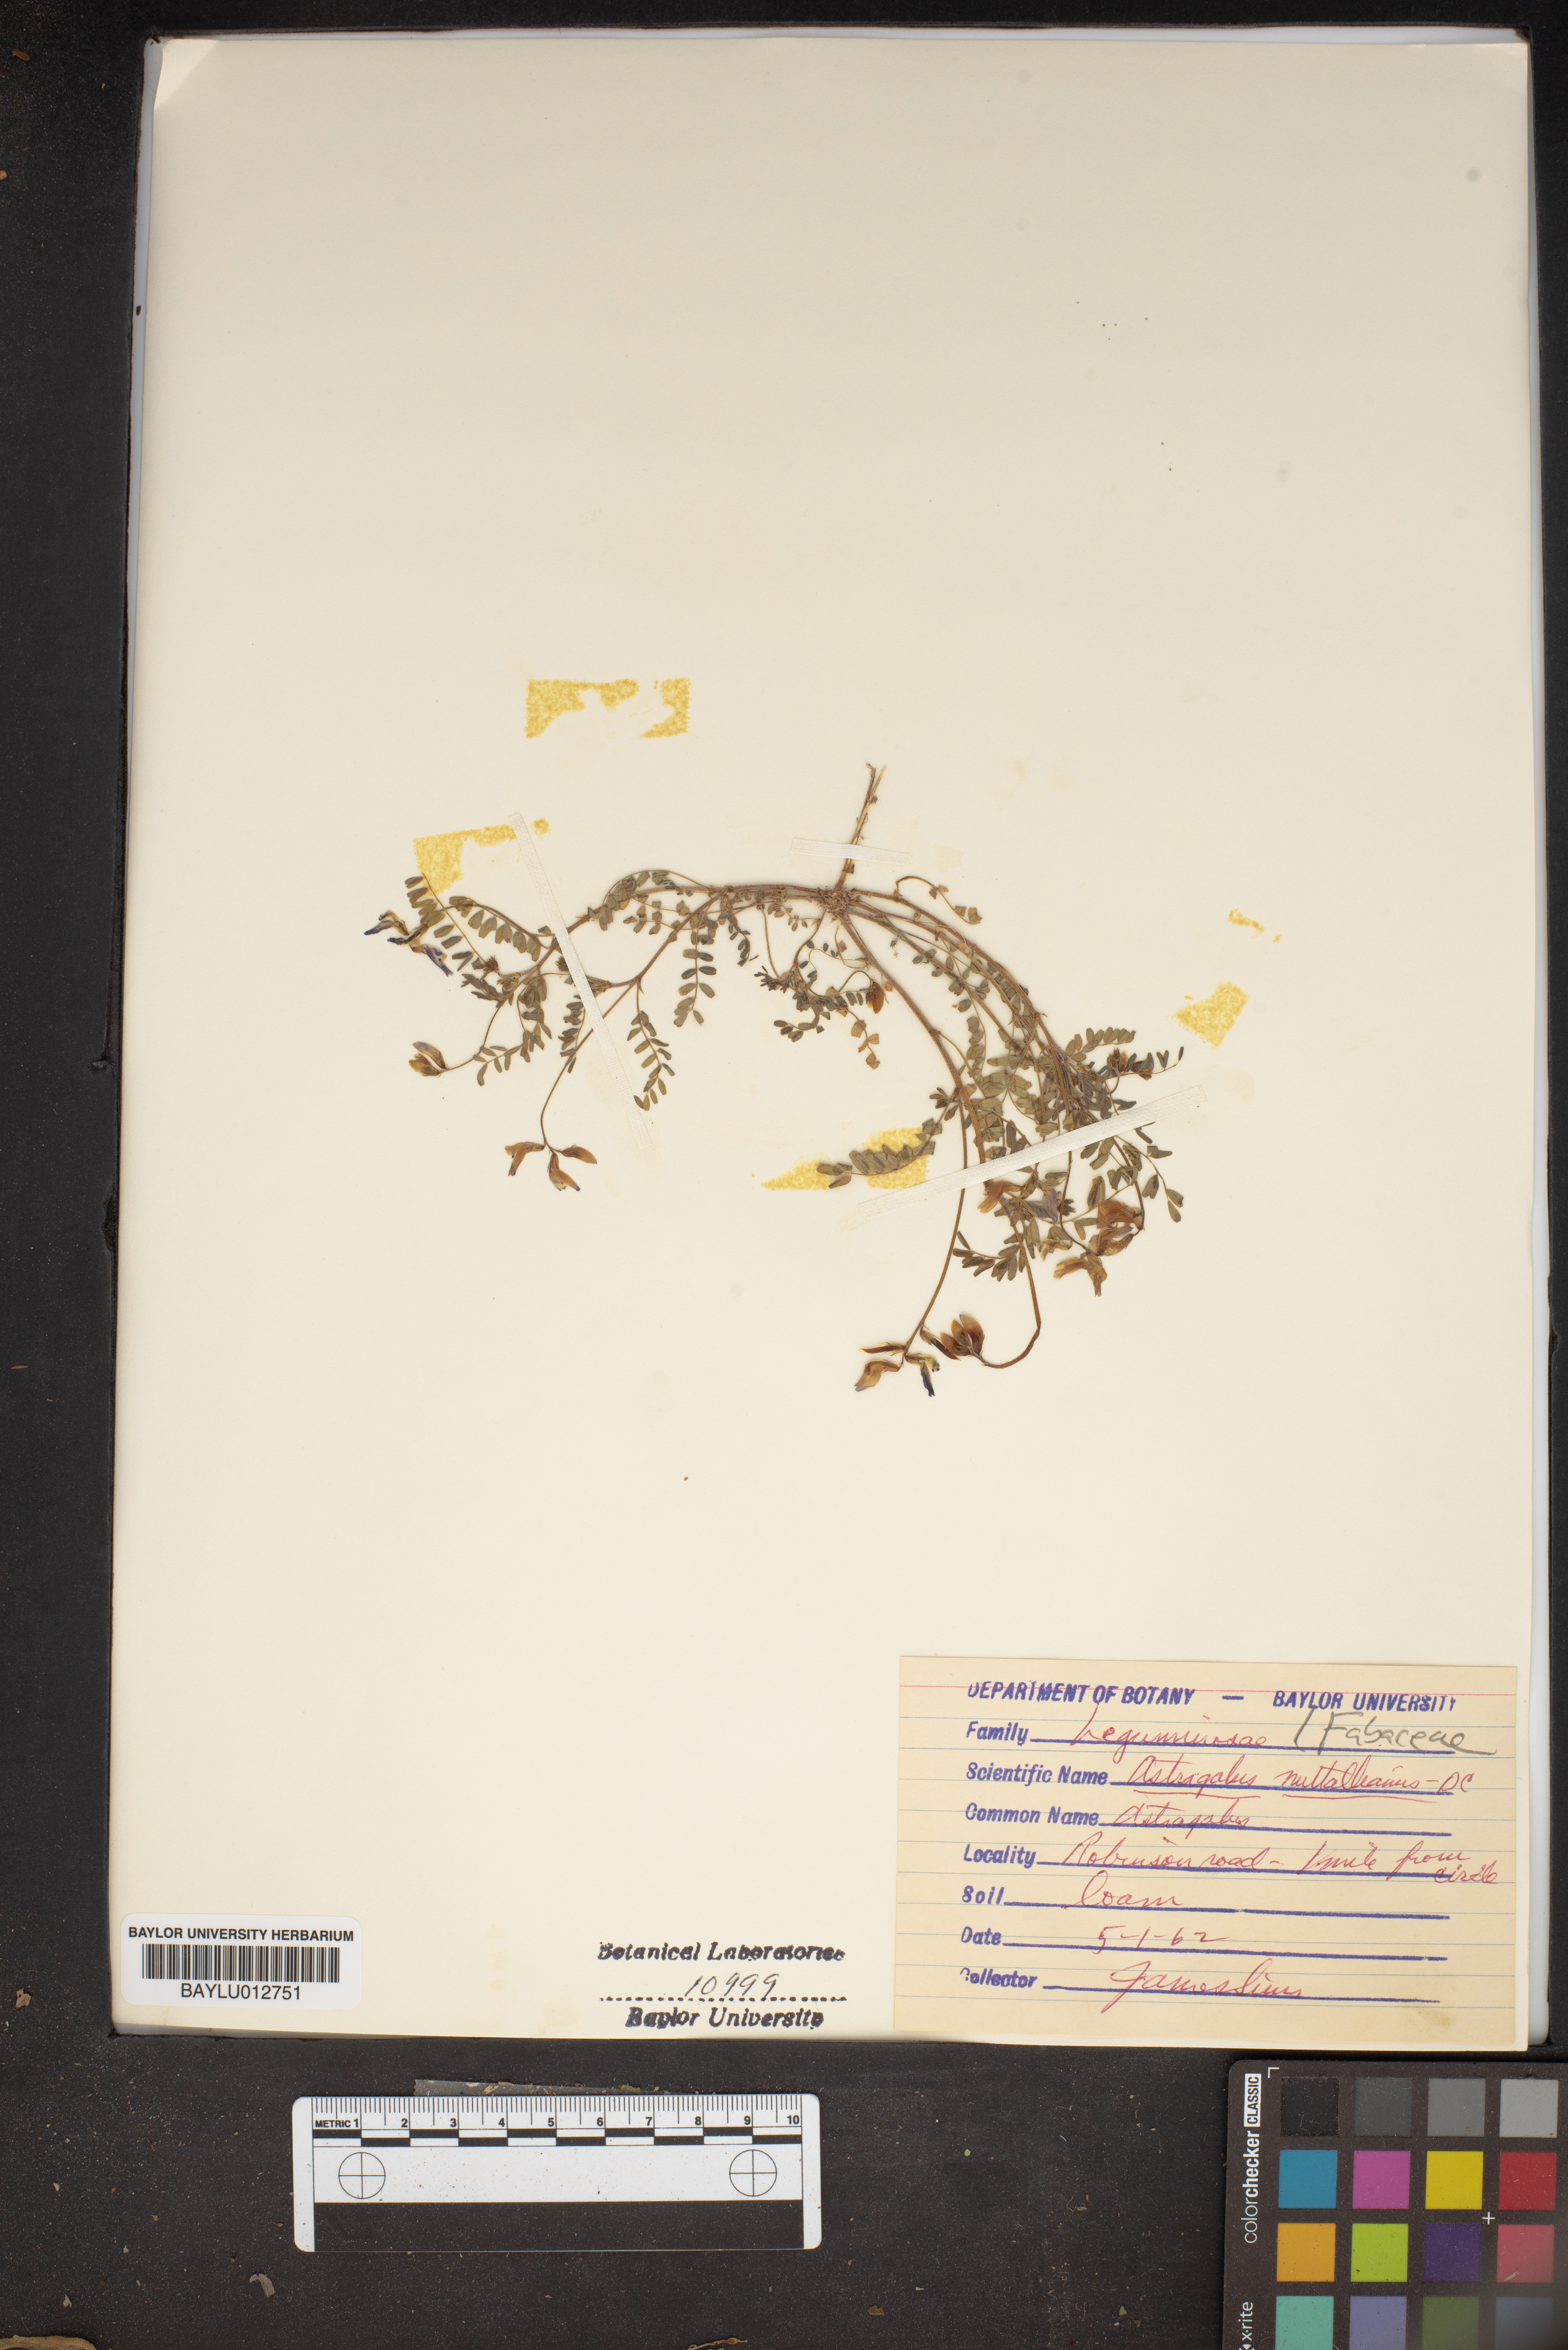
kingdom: Plantae
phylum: Tracheophyta
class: Magnoliopsida
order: Fabales
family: Fabaceae
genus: Astragalus
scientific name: Astragalus nuttallianus
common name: Smallflowered milkvetch
